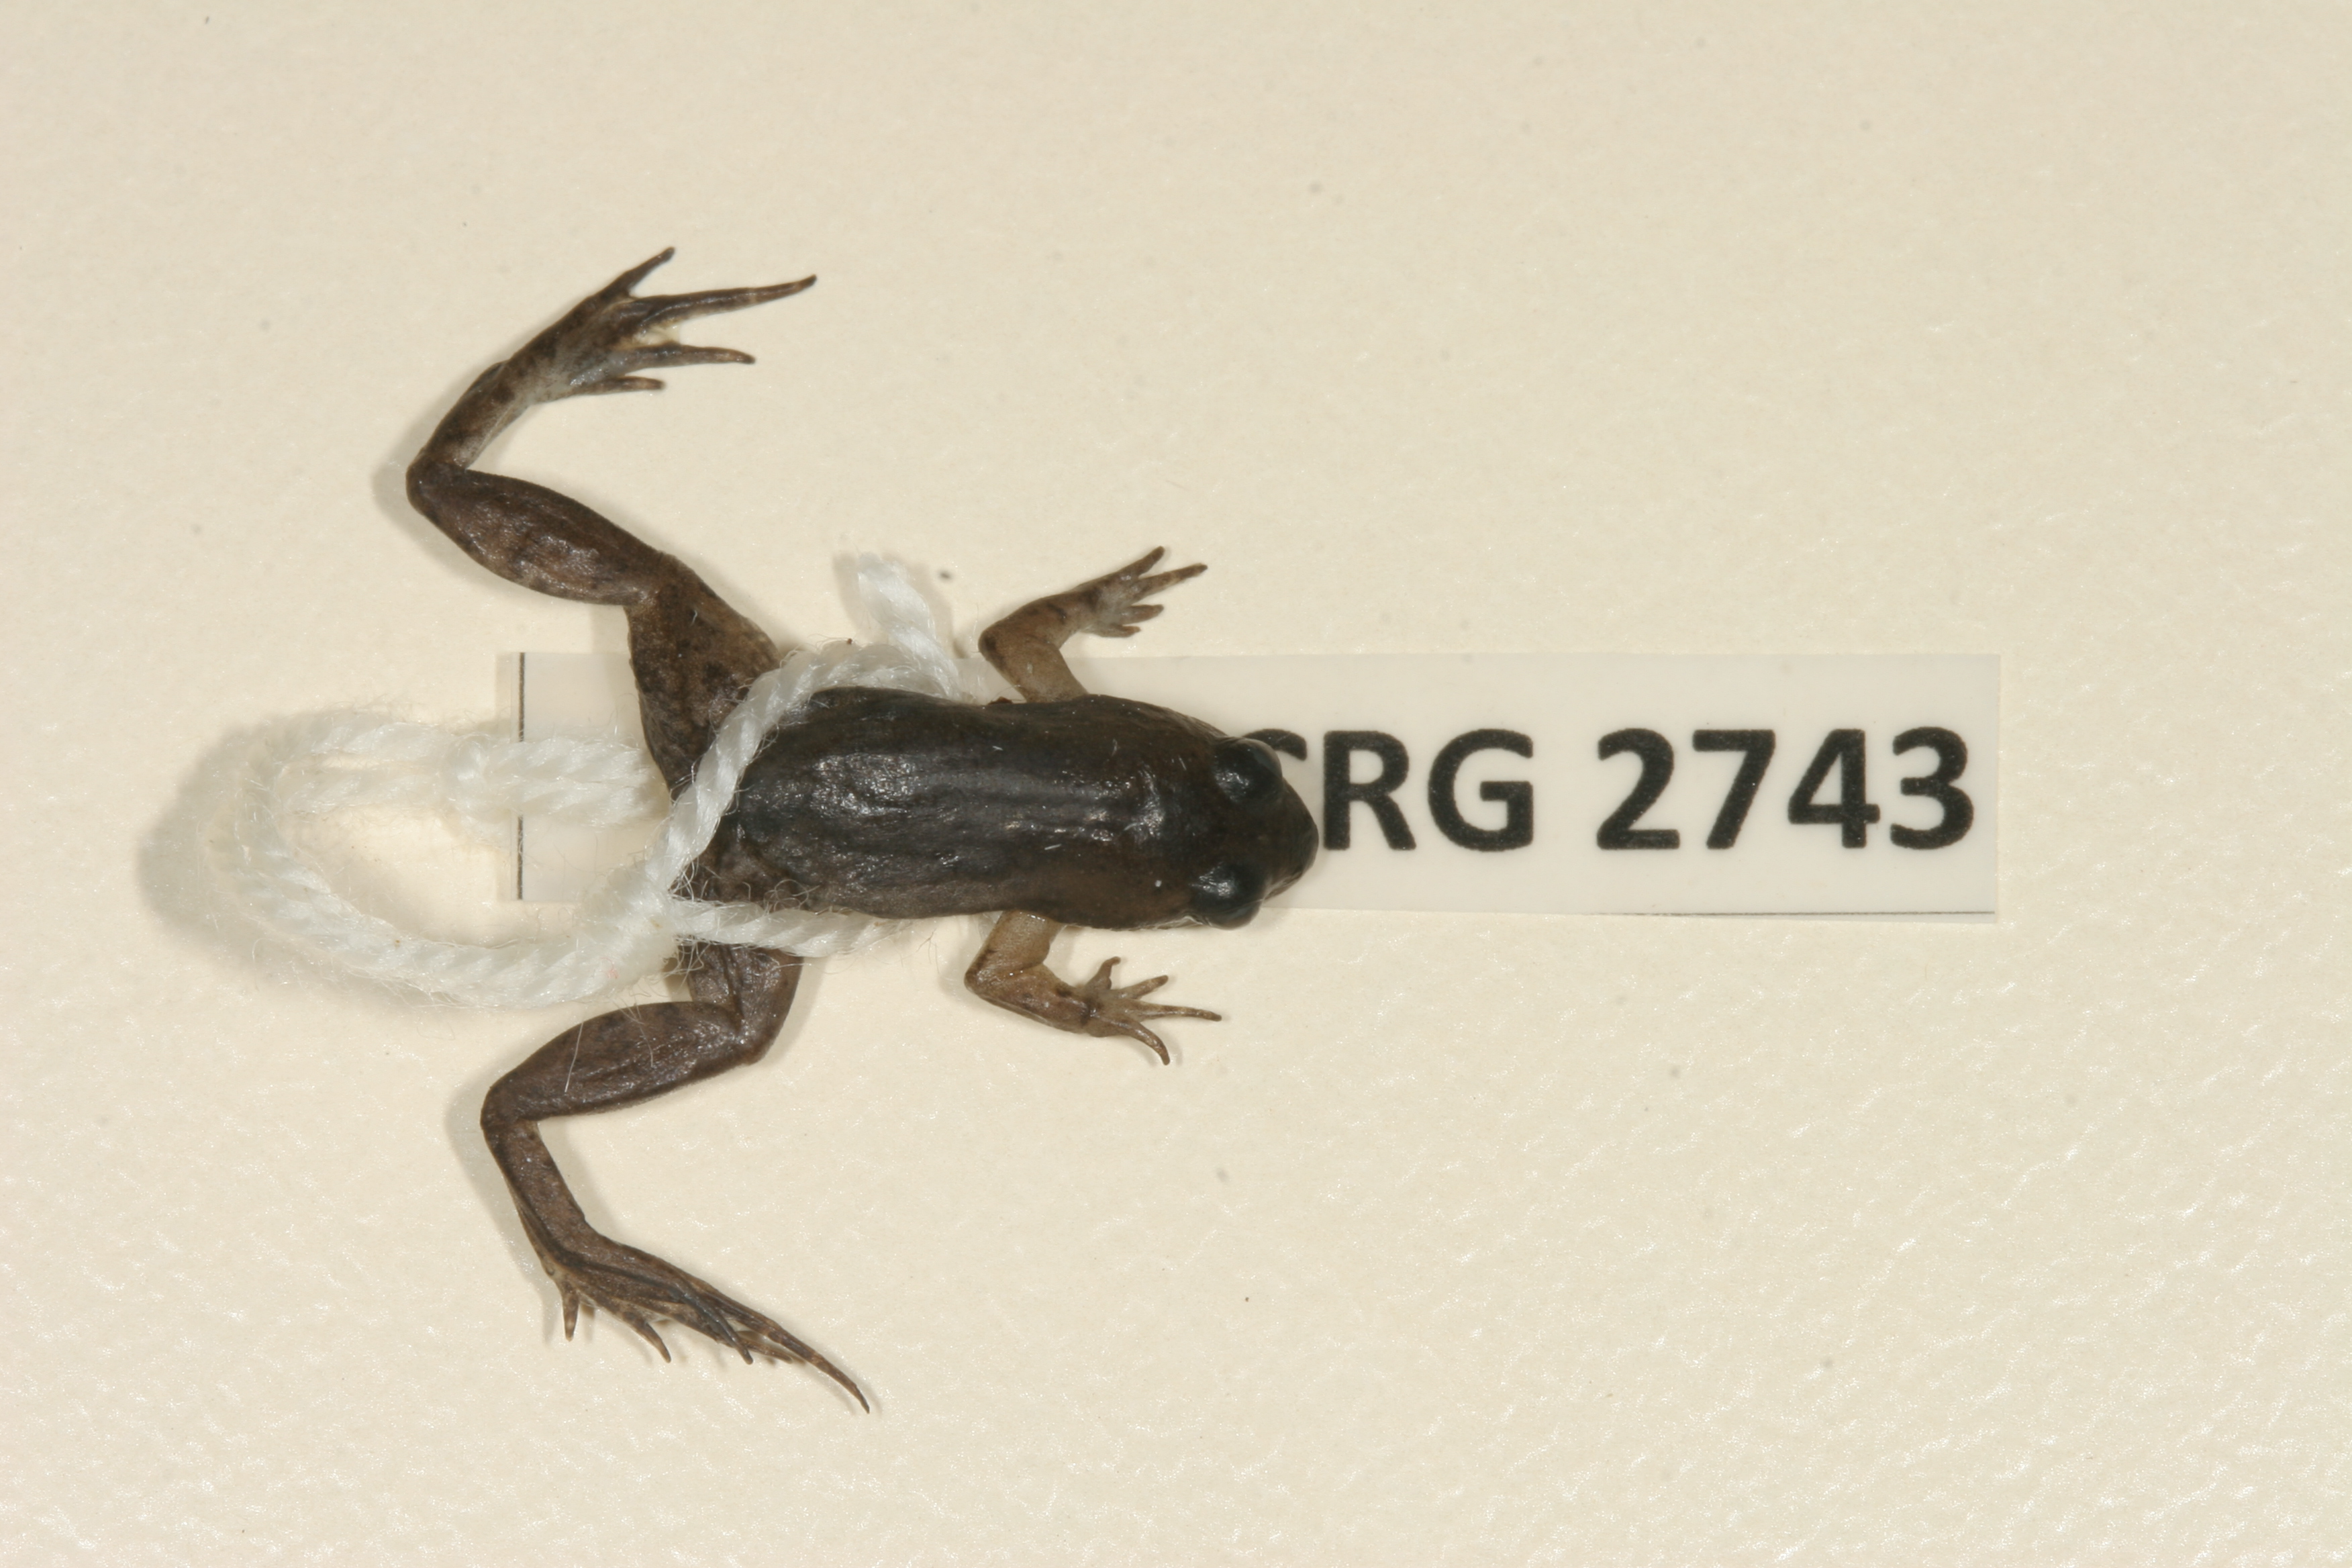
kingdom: Animalia
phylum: Chordata
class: Amphibia
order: Anura
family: Pyxicephalidae
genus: Microbatrachella
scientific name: Microbatrachella capensis
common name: Cape flats frog
